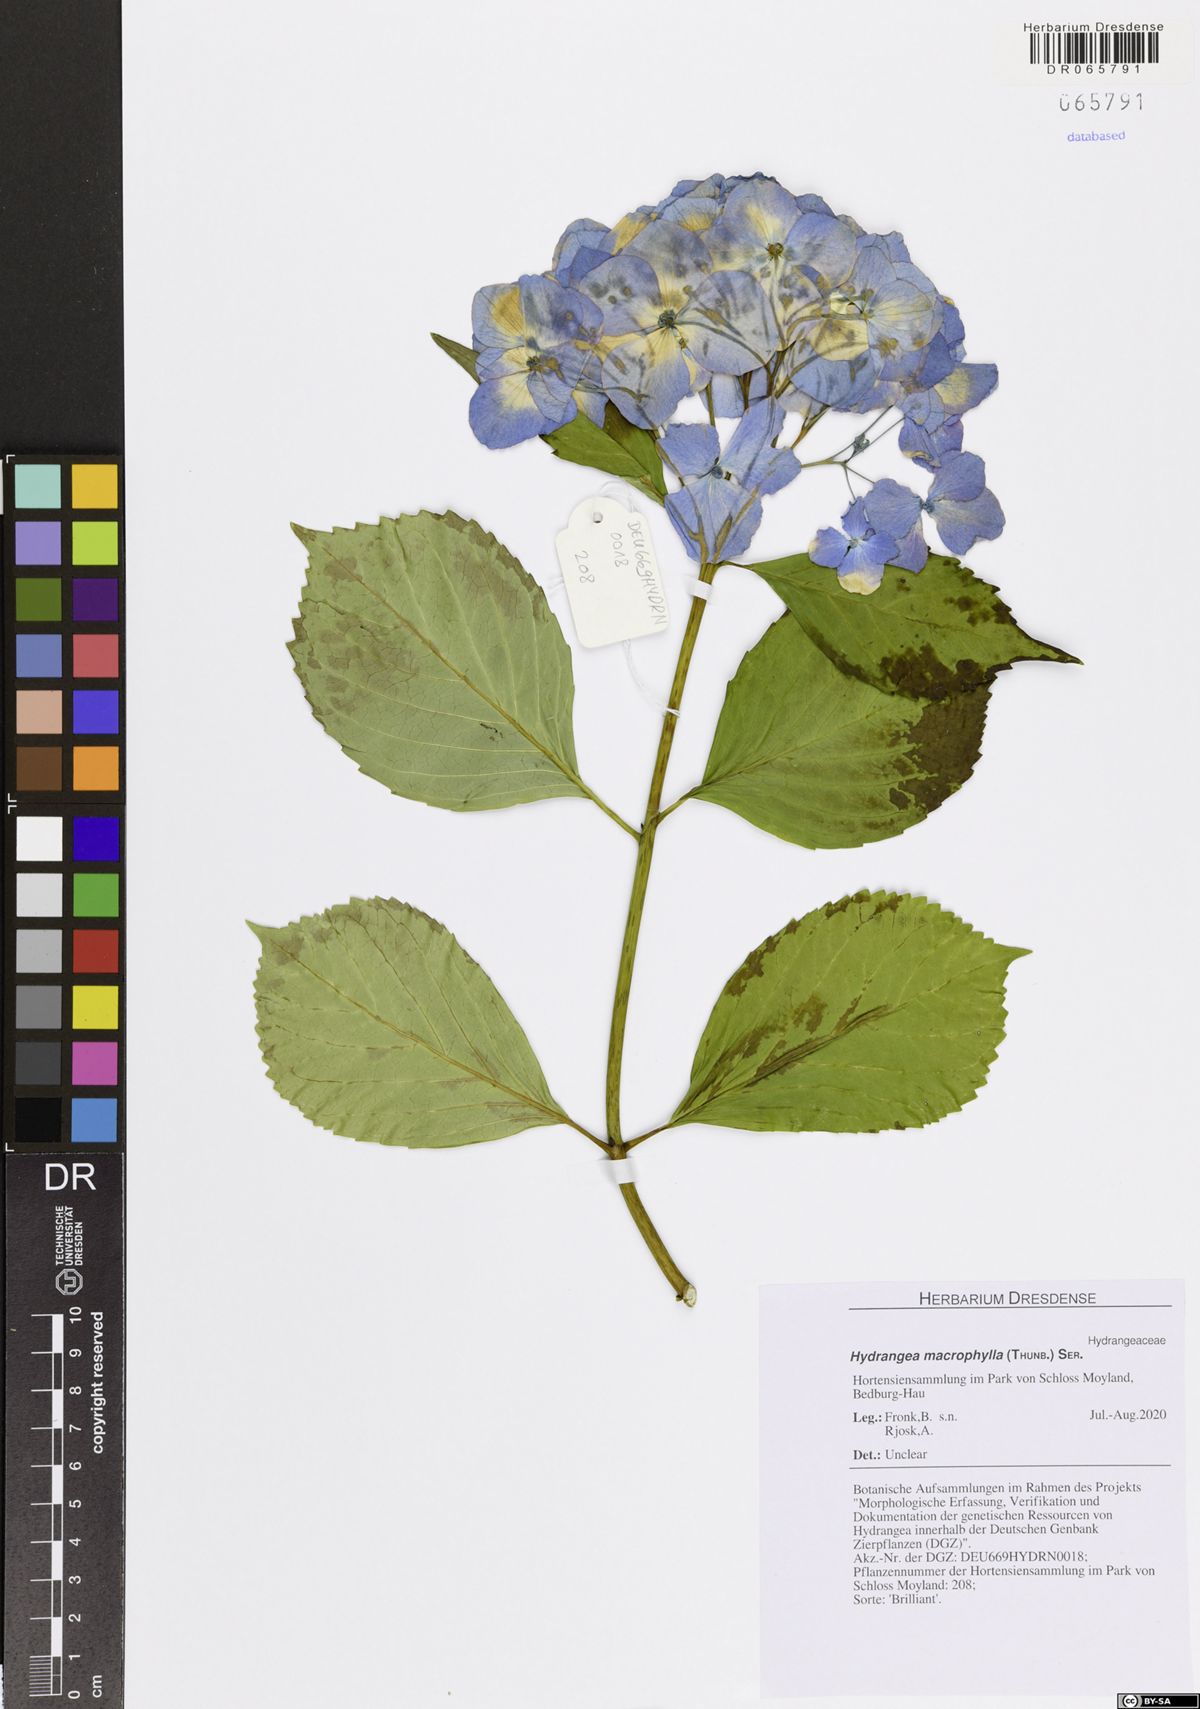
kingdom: Plantae
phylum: Tracheophyta
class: Magnoliopsida
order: Cornales
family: Hydrangeaceae
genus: Hydrangea
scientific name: Hydrangea macrophylla
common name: Hydrangea
